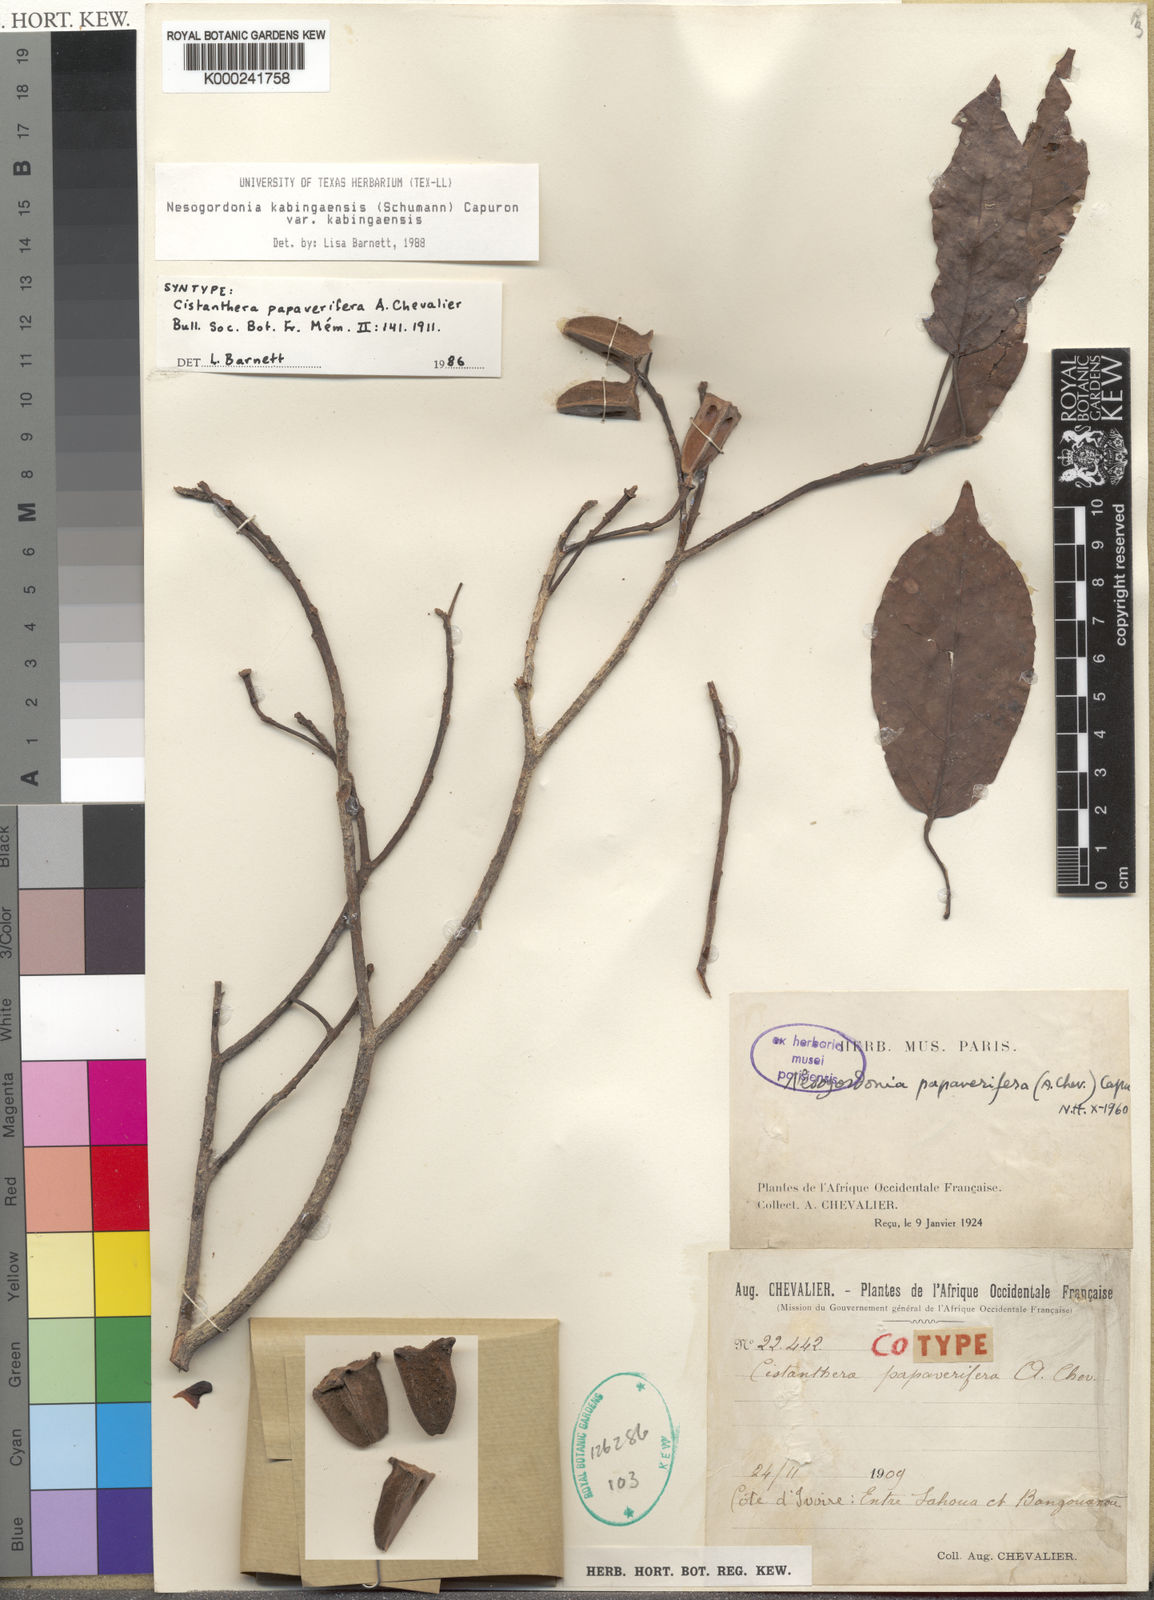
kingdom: Plantae
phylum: Tracheophyta
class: Magnoliopsida
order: Malvales
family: Malvaceae
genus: Nesogordonia
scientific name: Nesogordonia
